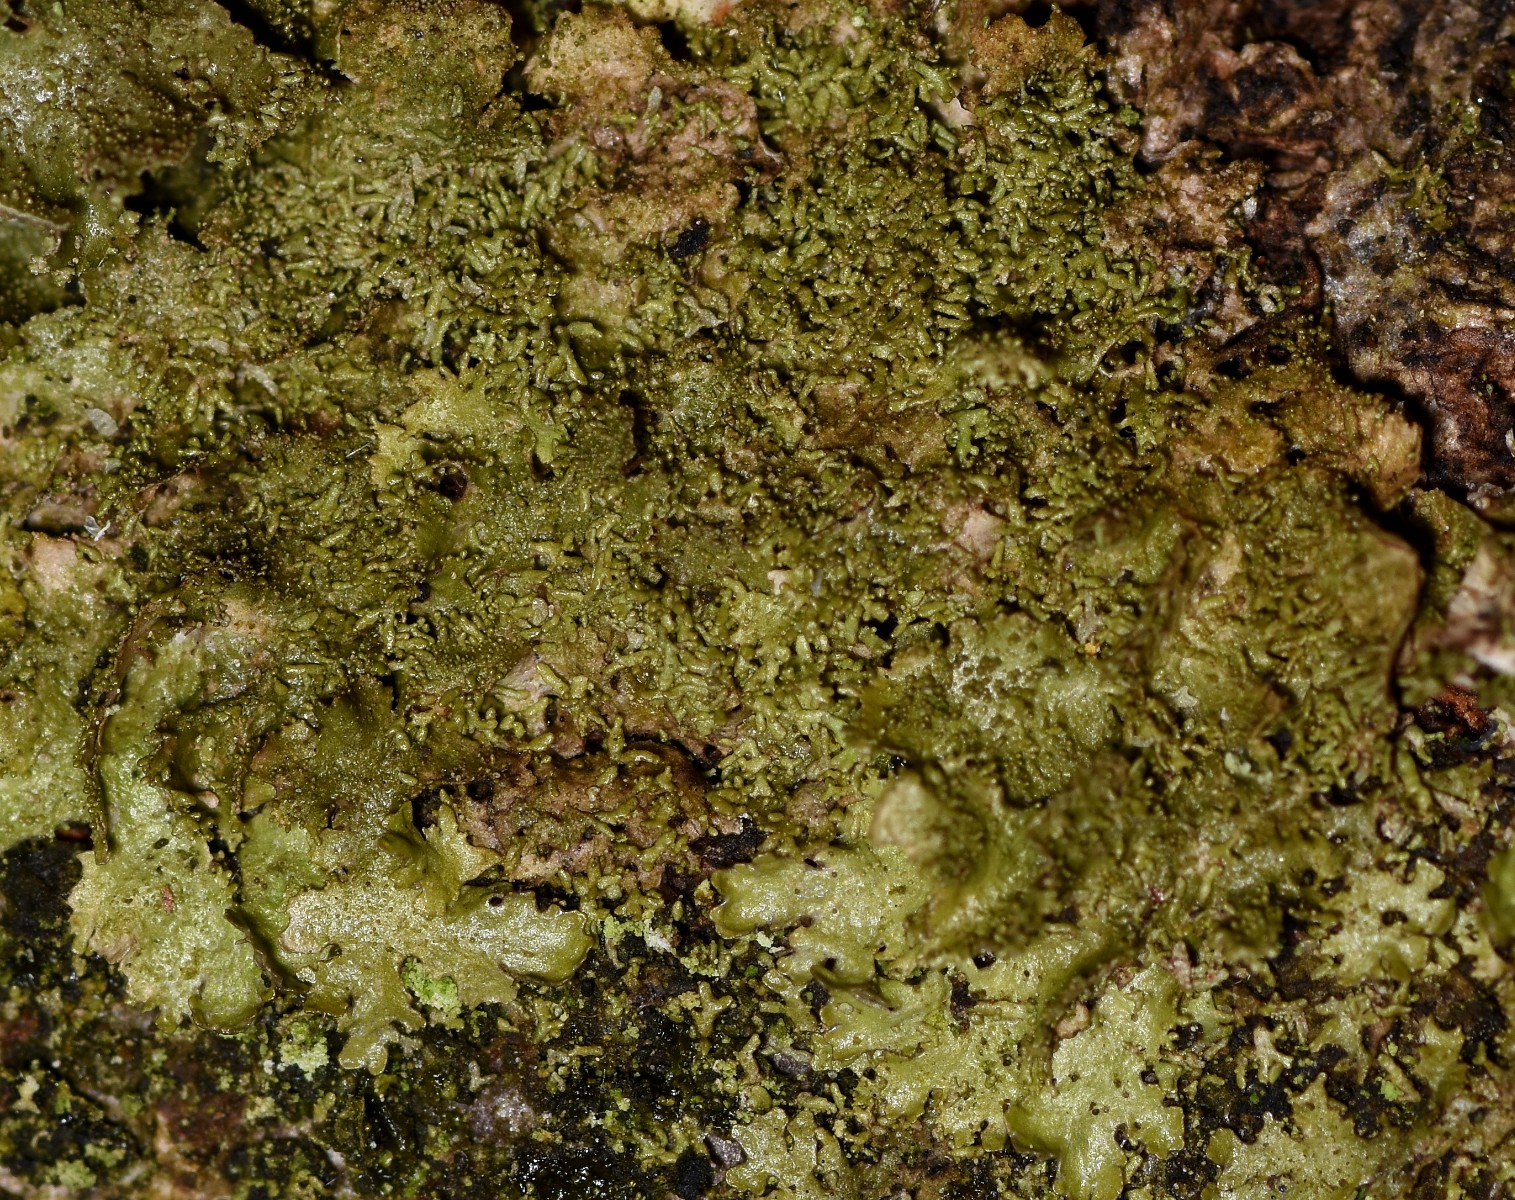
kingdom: Fungi
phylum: Ascomycota
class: Lecanoromycetes
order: Lecanorales
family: Parmeliaceae
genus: Melanohalea
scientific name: Melanohalea exasperatula
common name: kølle-skållav
